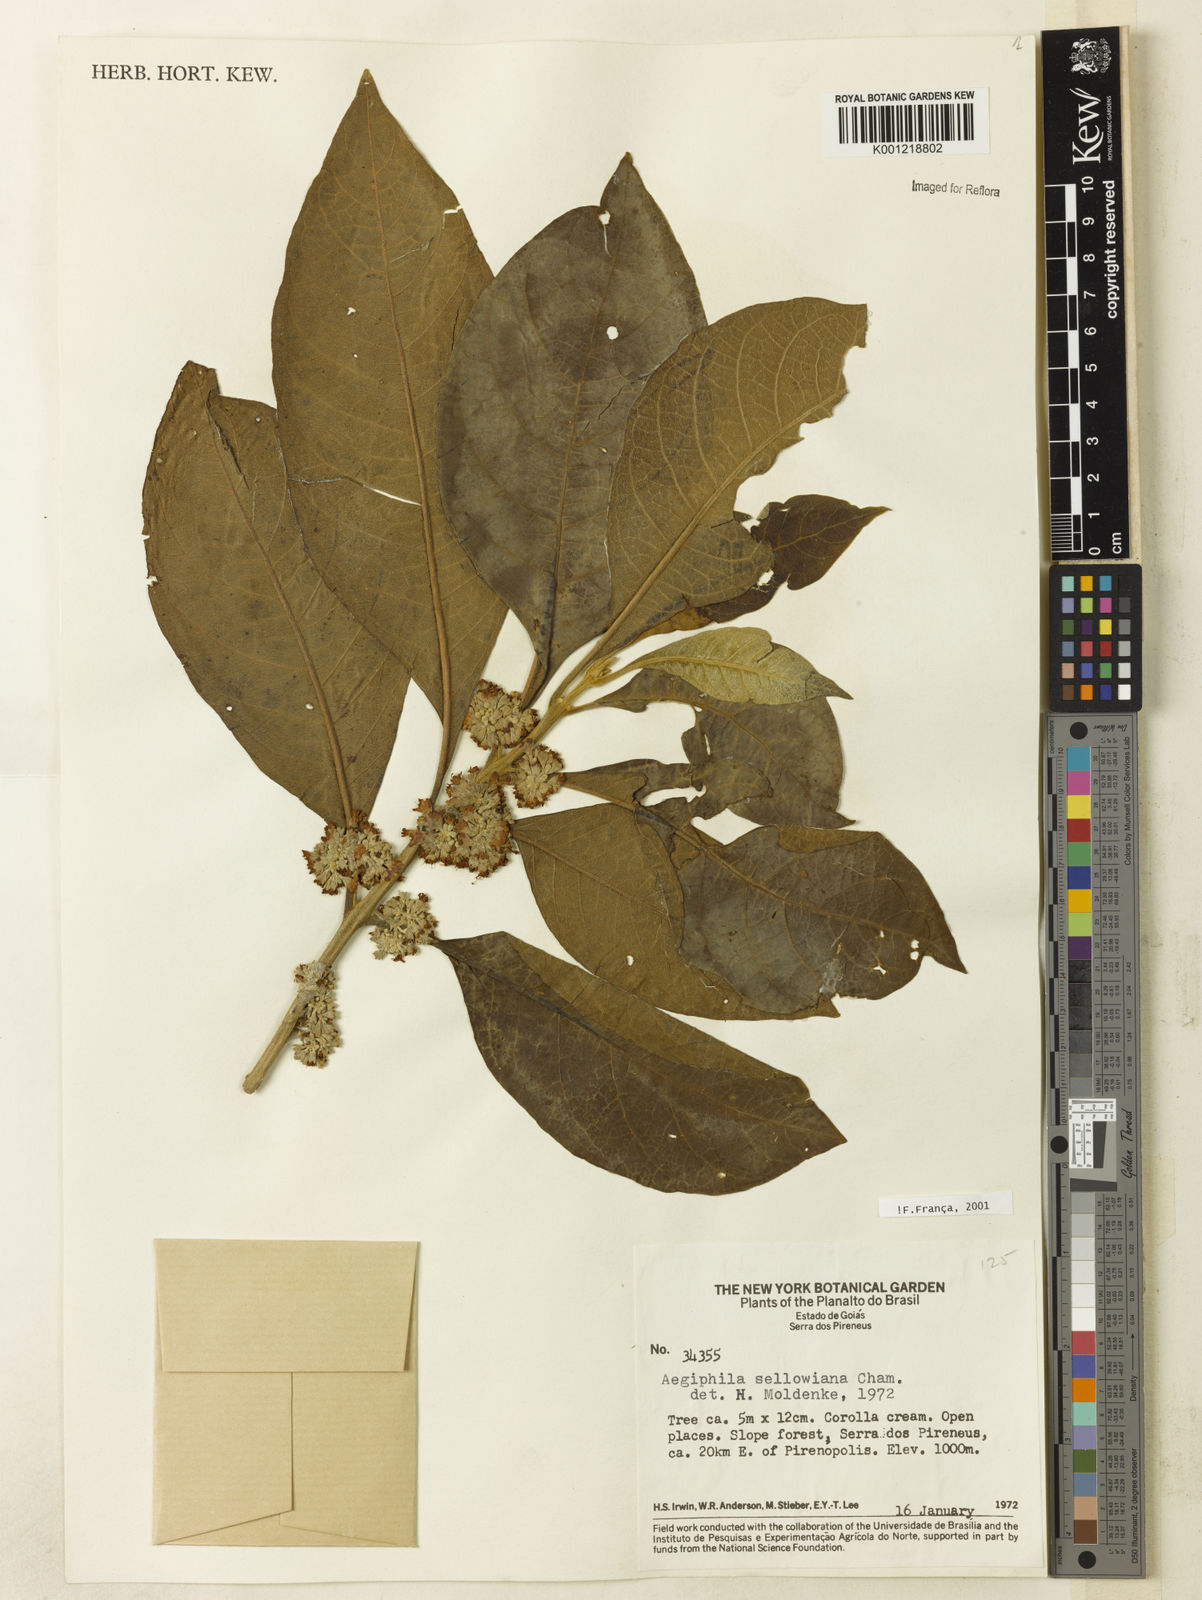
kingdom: Plantae
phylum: Tracheophyta
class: Magnoliopsida
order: Lamiales
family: Lamiaceae
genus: Aegiphila
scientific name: Aegiphila verticillata
